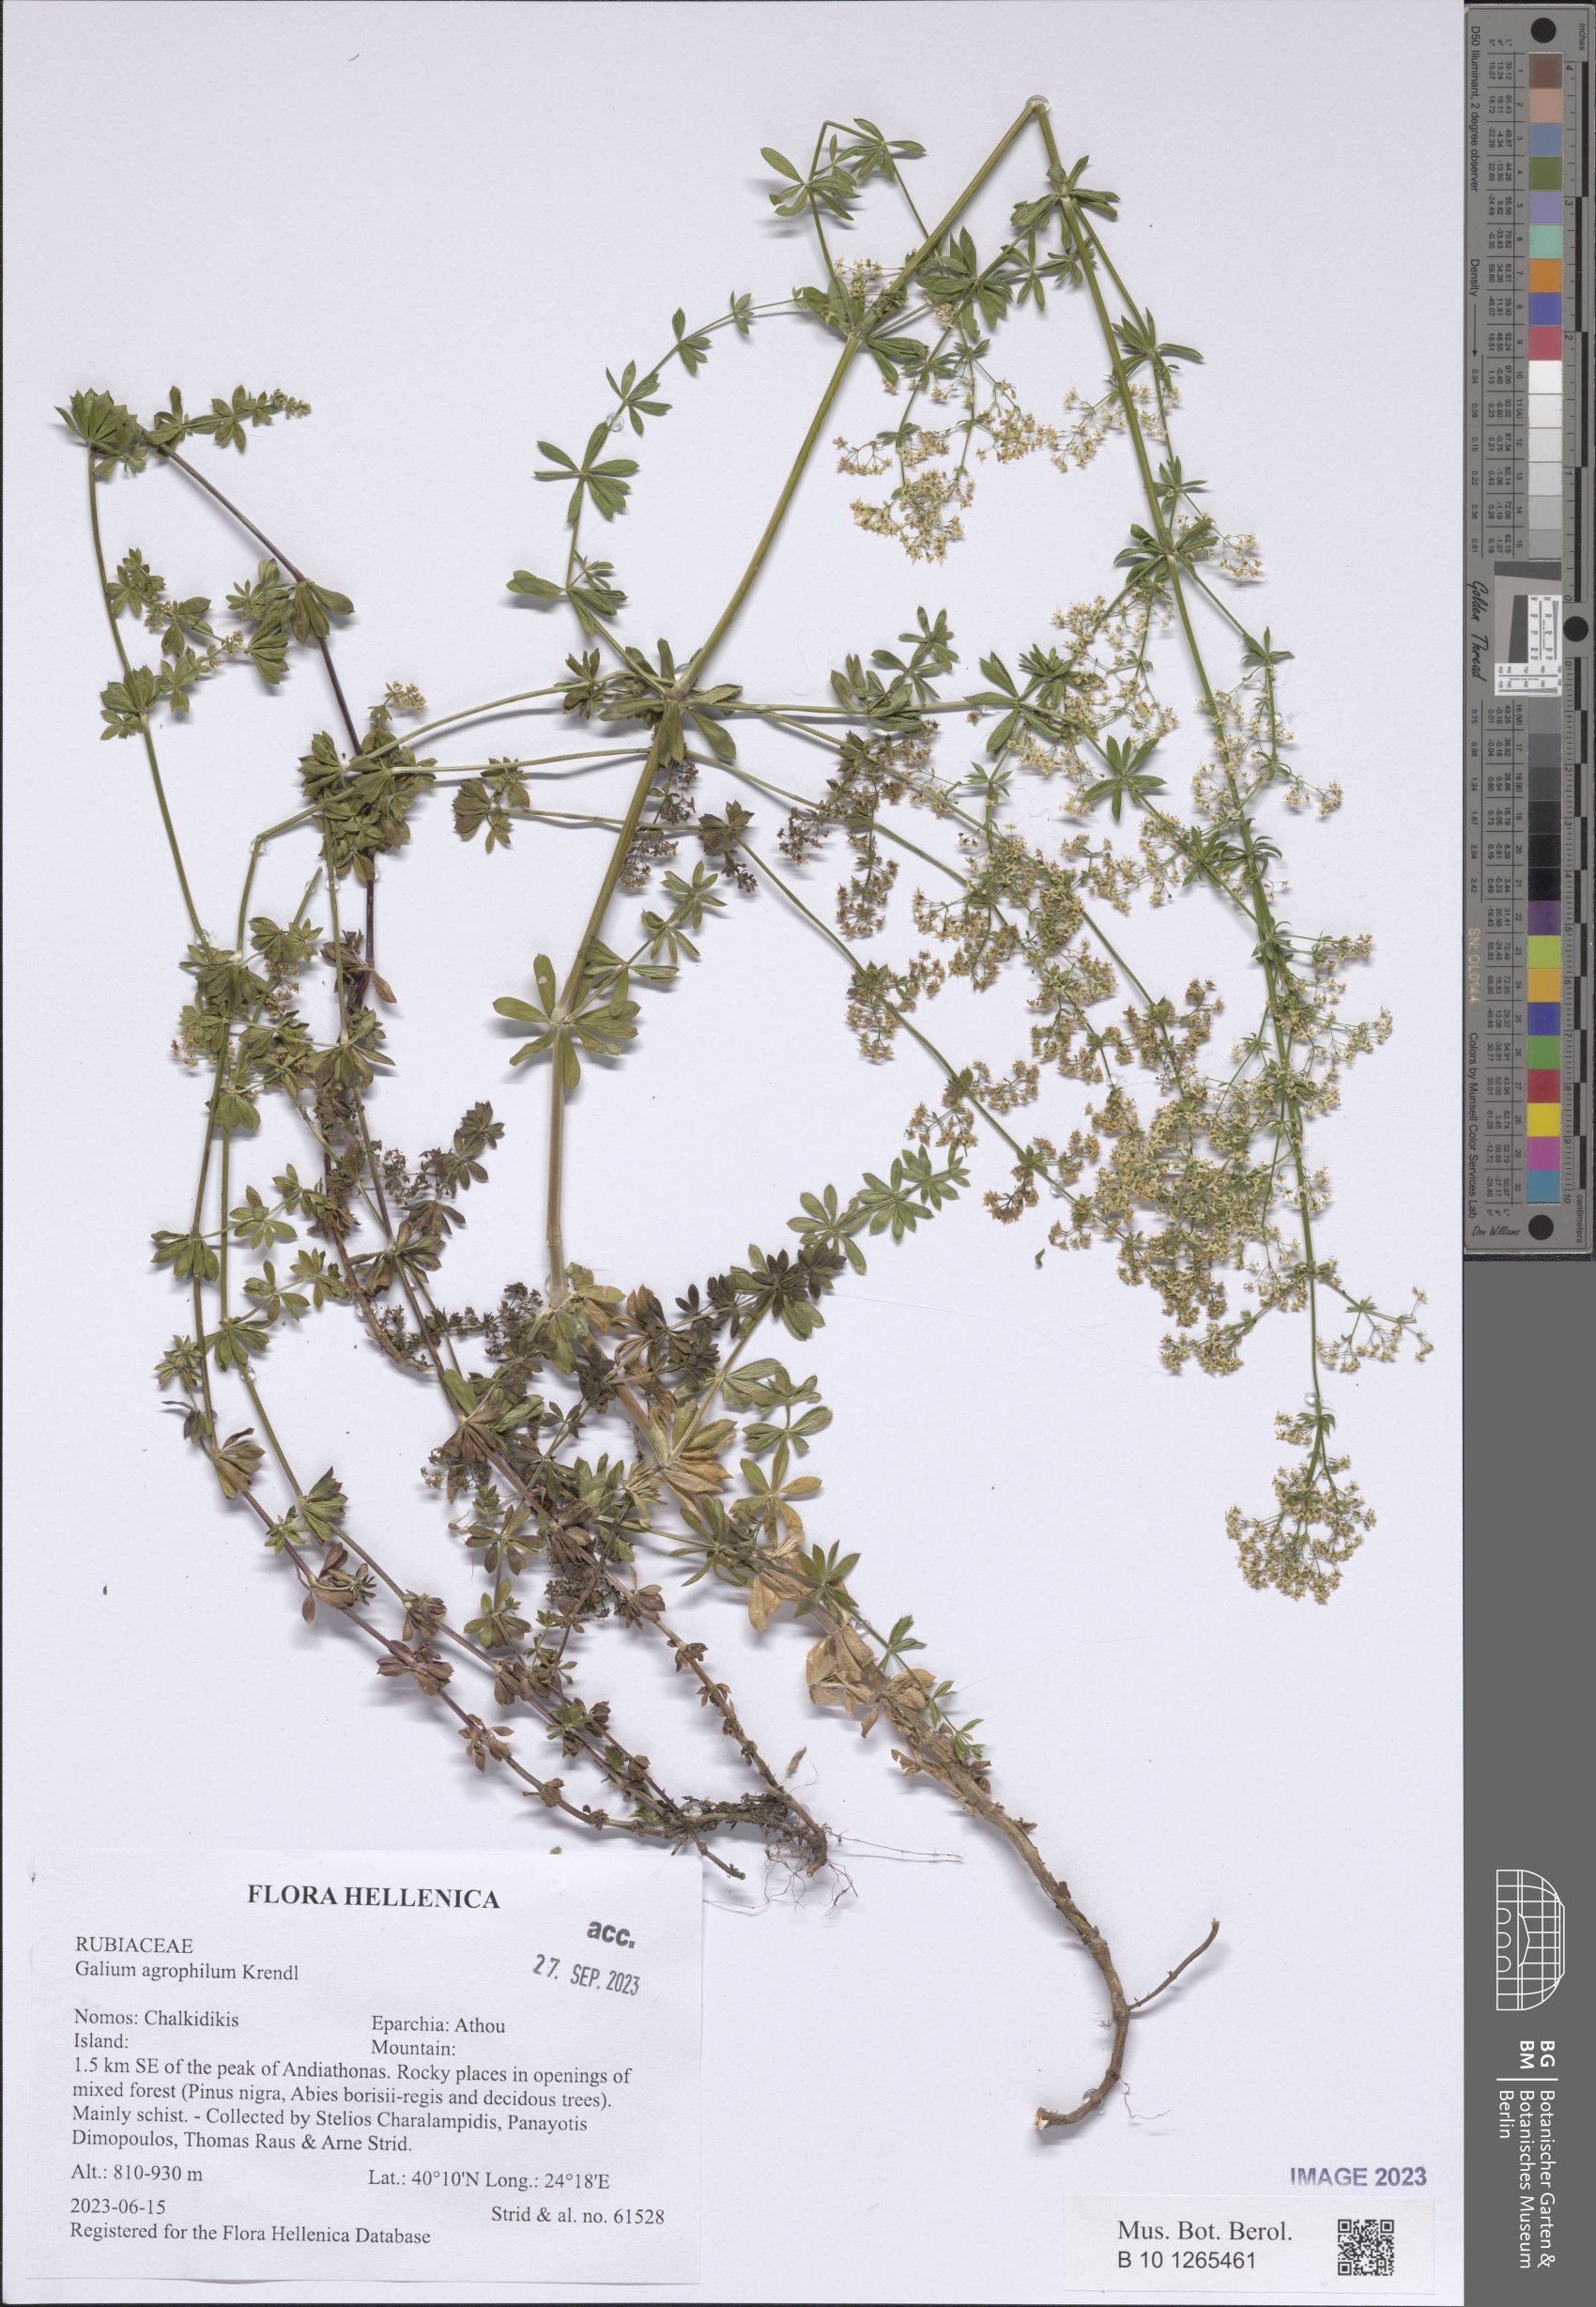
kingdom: Plantae
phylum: Tracheophyta
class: Magnoliopsida
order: Gentianales
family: Rubiaceae
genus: Galium
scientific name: Galium agrophilum
